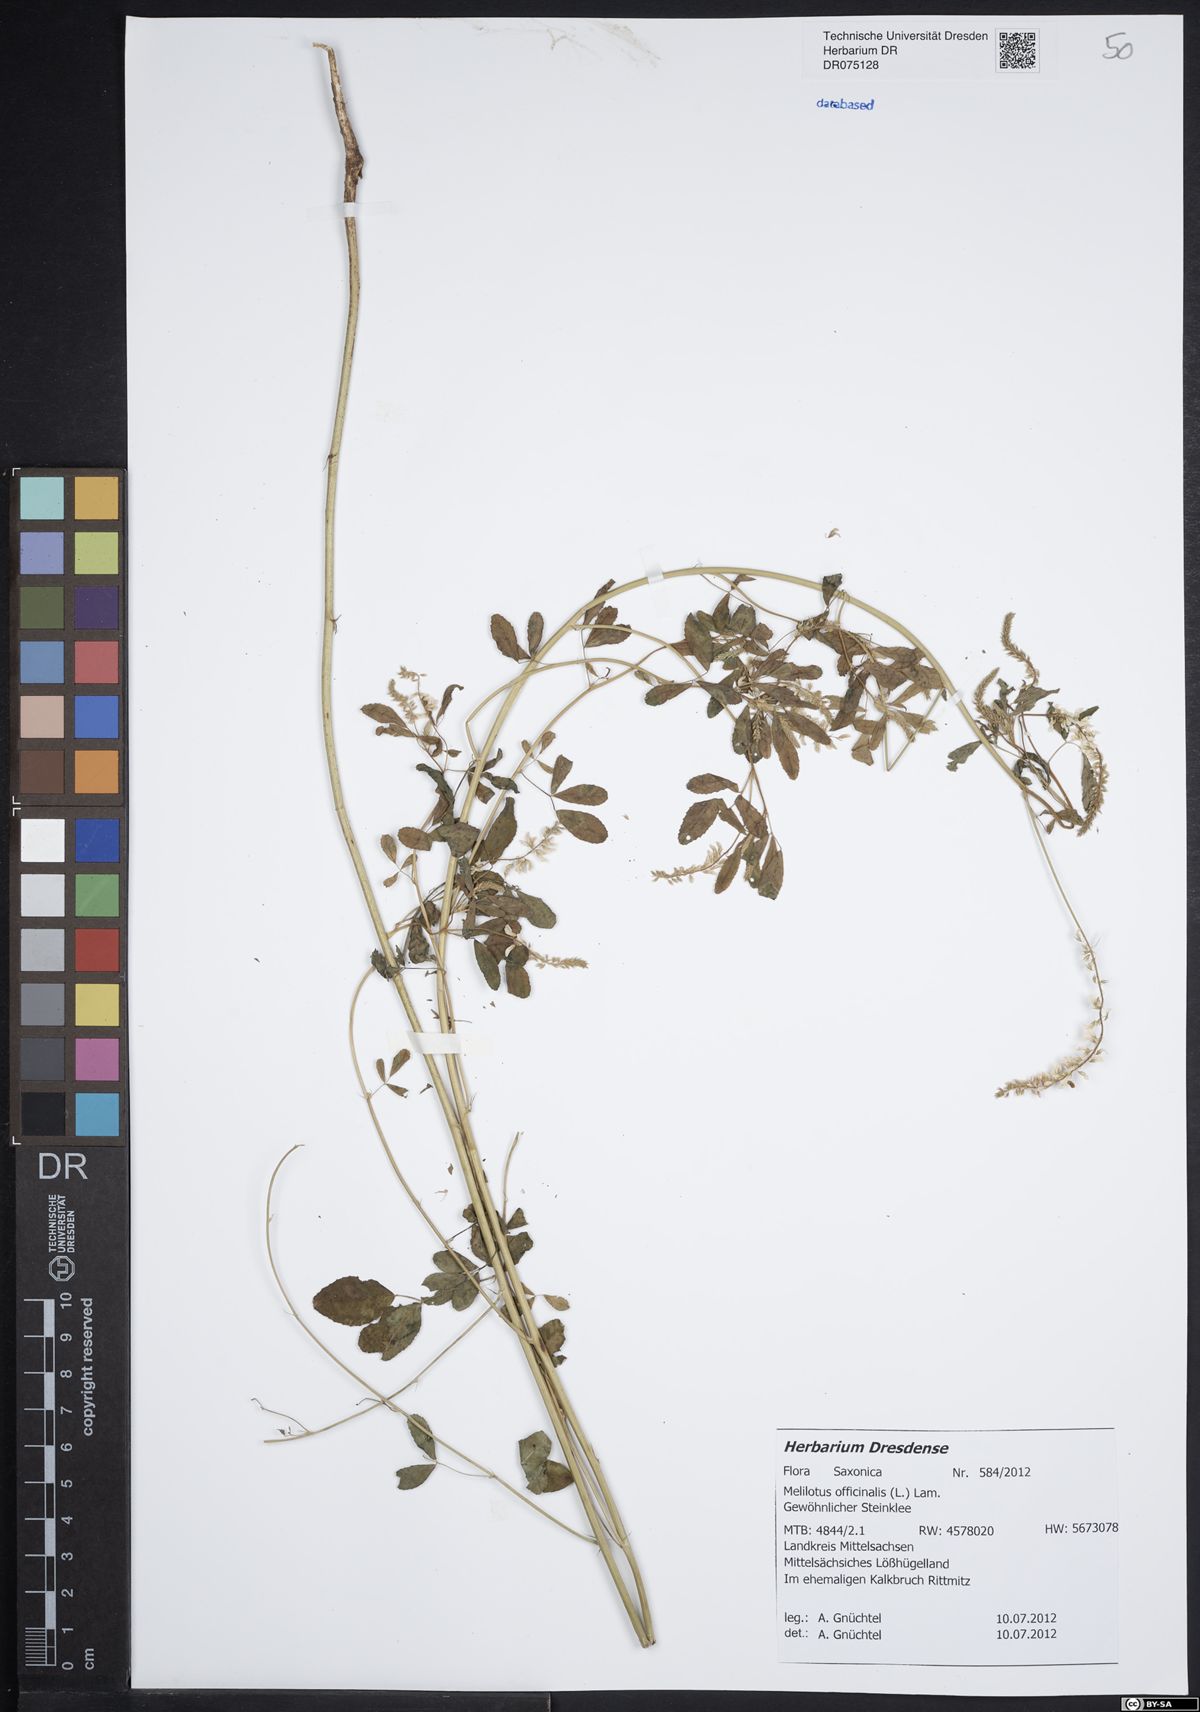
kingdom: Plantae
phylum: Tracheophyta
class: Magnoliopsida
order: Fabales
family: Fabaceae
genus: Melilotus
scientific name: Melilotus officinalis
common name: Sweetclover
